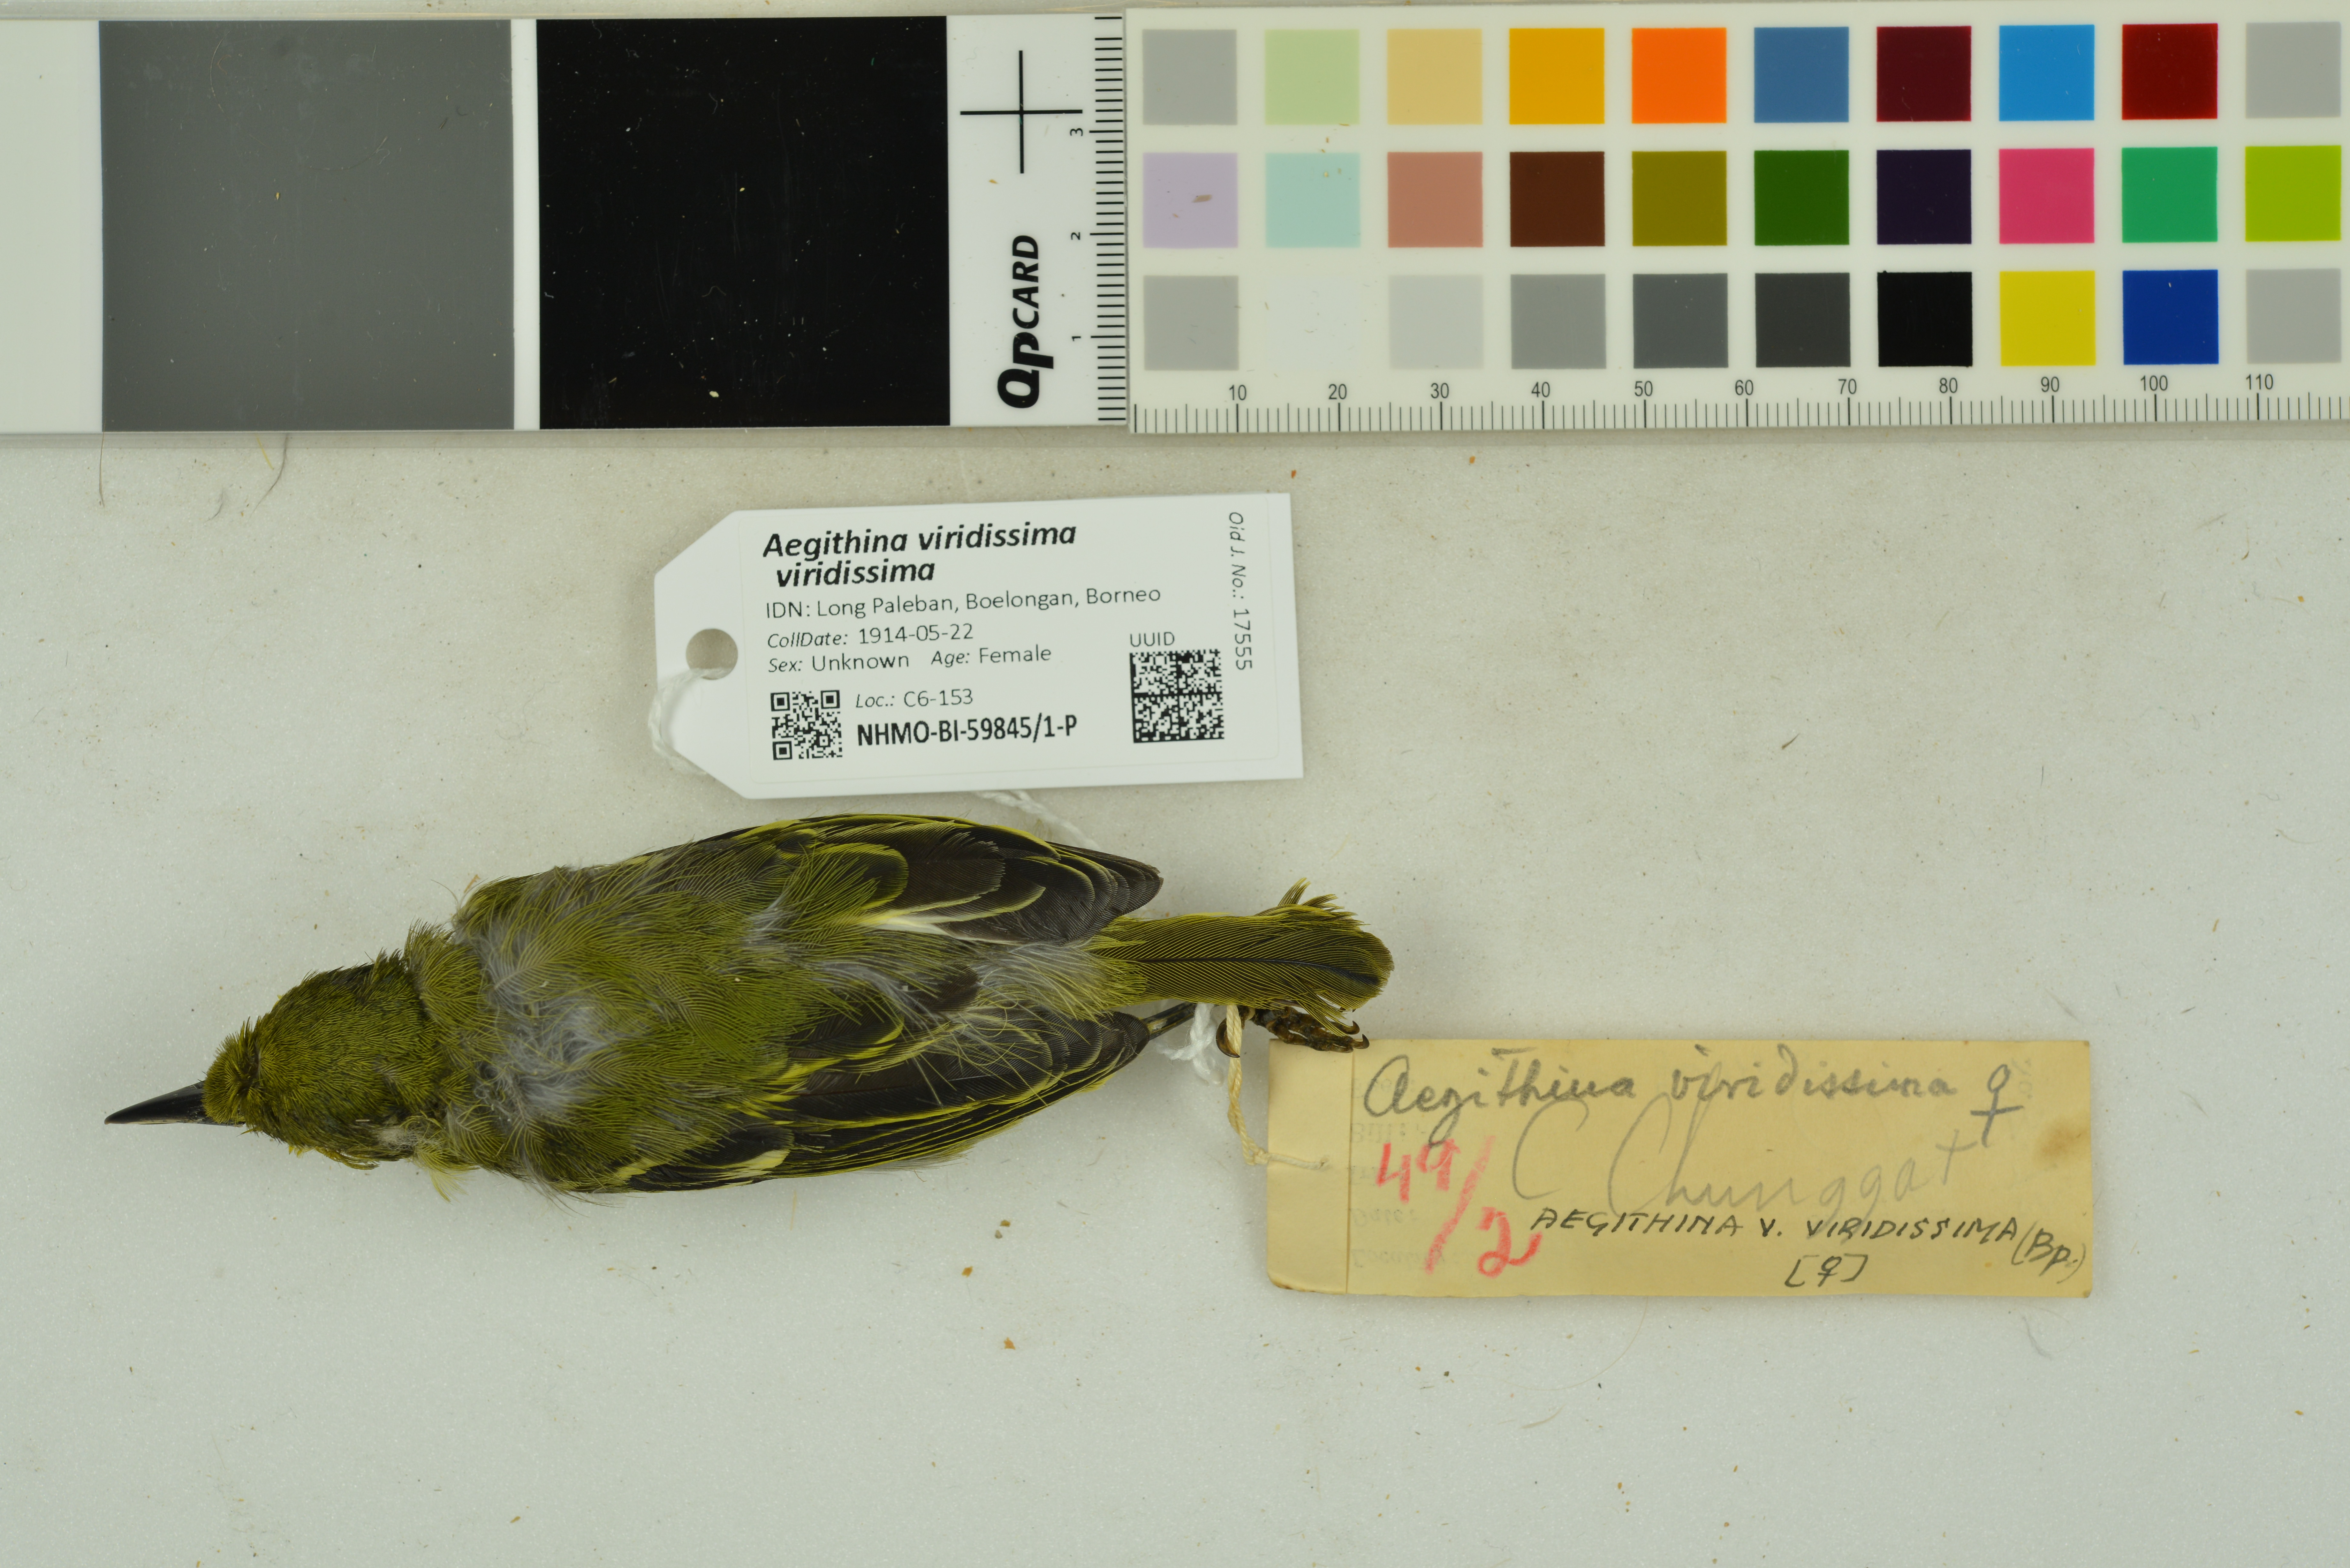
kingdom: Animalia
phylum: Chordata
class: Aves
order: Passeriformes
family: Aegithinidae
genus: Aegithina
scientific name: Aegithina viridissima
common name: Green iora
